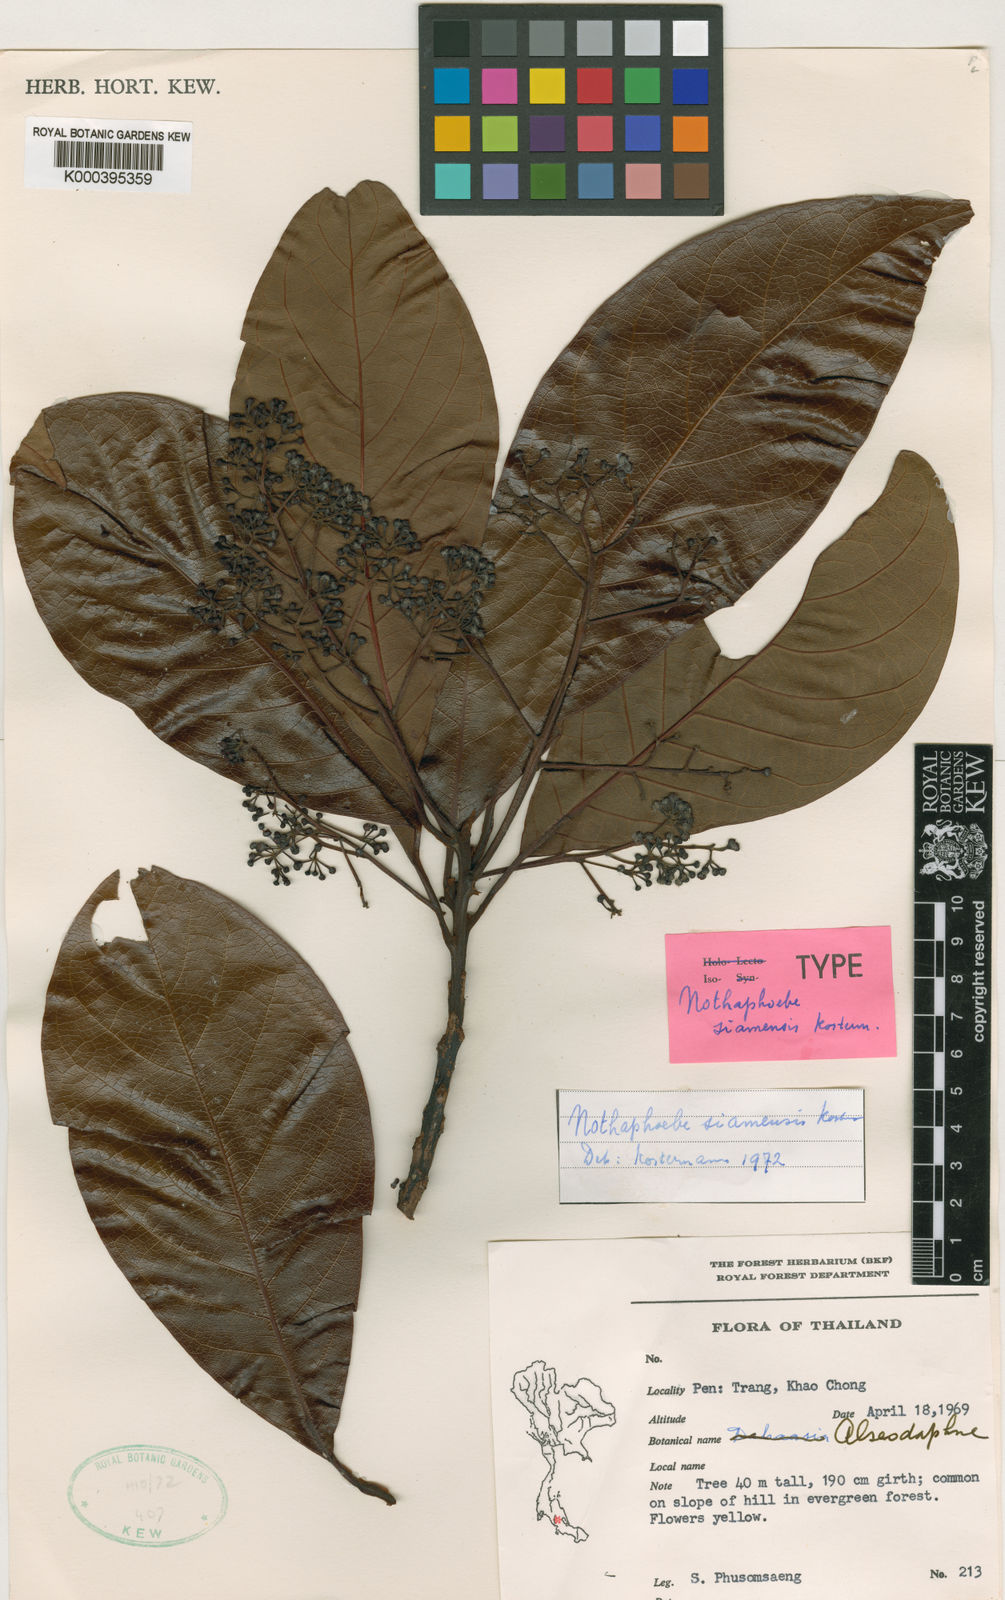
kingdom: Plantae
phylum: Tracheophyta
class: Magnoliopsida
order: Laurales
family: Lauraceae
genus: Nothaphoebe
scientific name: Nothaphoebe siamensis
